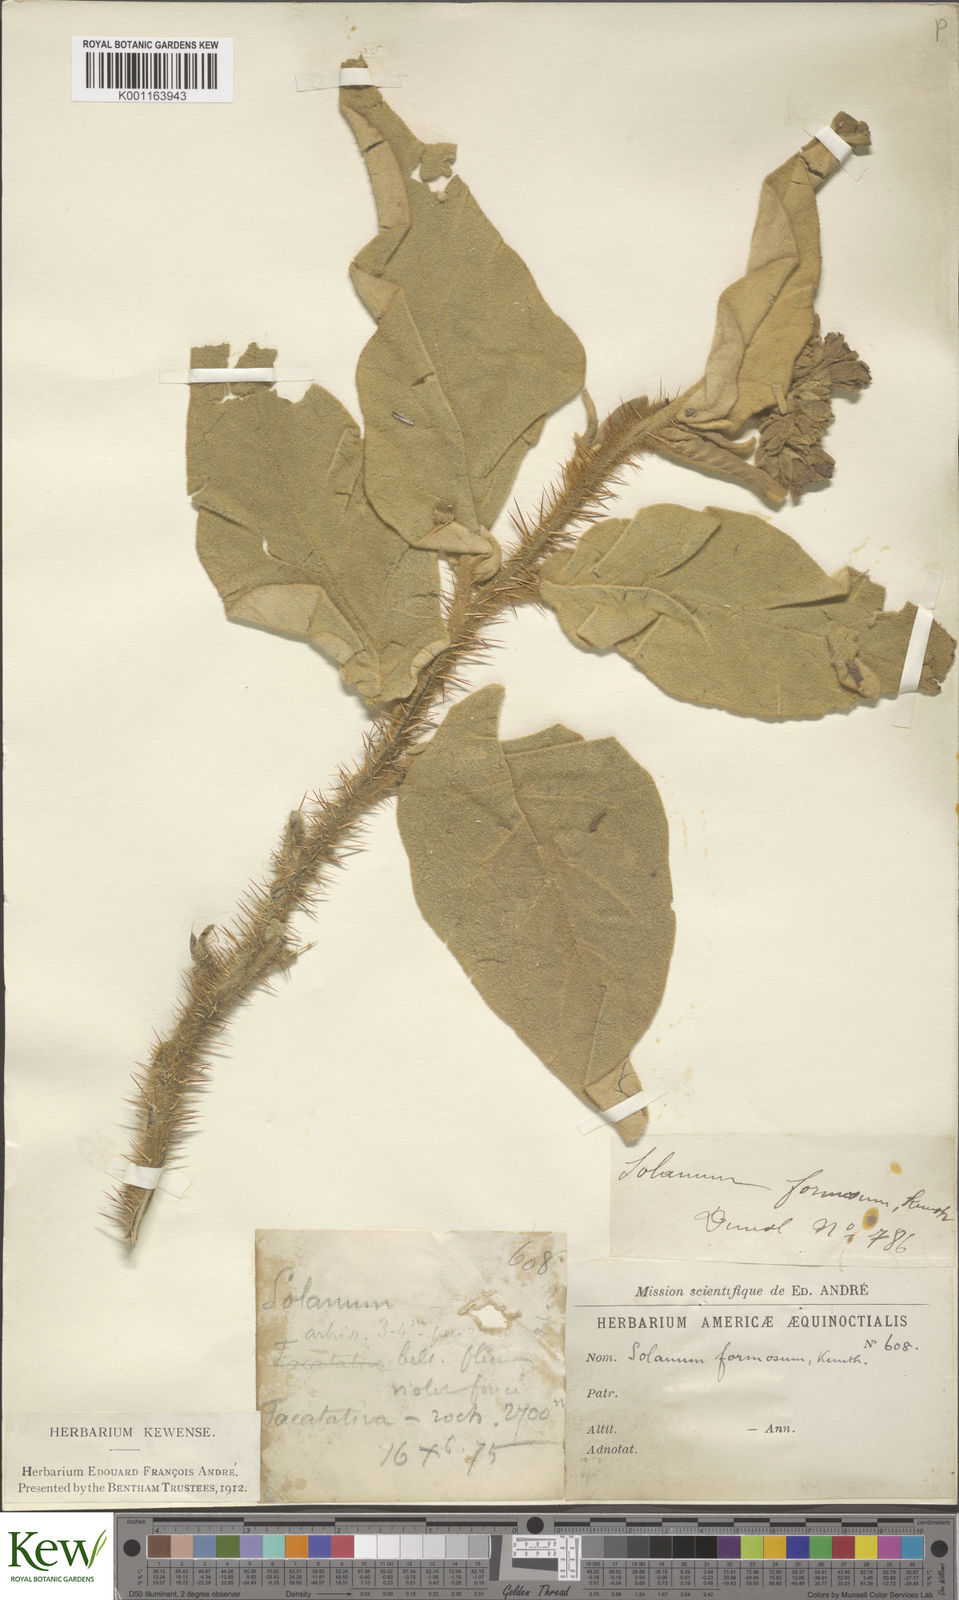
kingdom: Plantae
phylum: Tracheophyta
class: Magnoliopsida
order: Solanales
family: Solanaceae
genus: Solanum
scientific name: Solanum fraxinifolium
